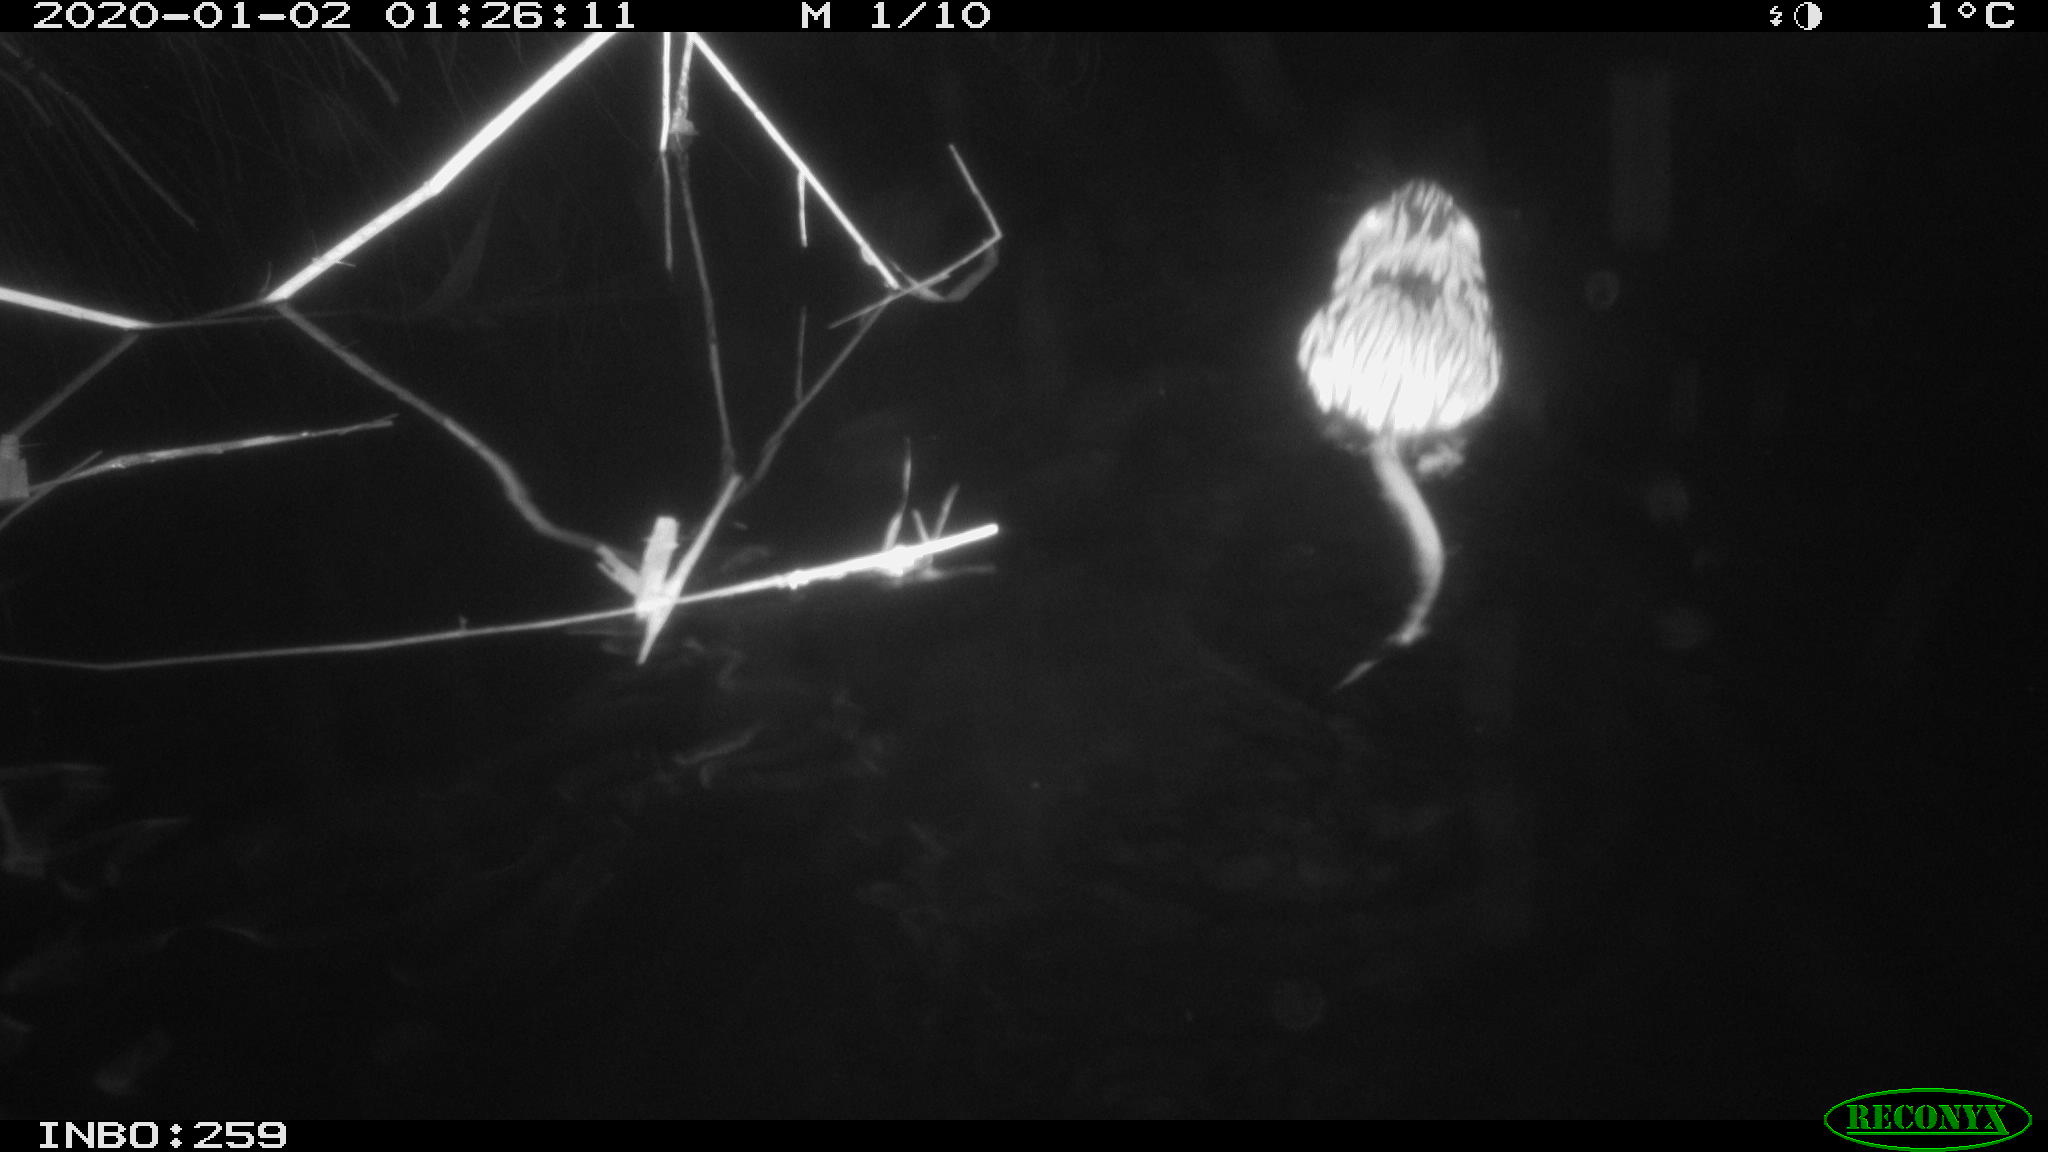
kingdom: Animalia
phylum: Chordata
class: Mammalia
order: Rodentia
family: Cricetidae
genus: Ondatra
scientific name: Ondatra zibethicus
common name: Muskrat
